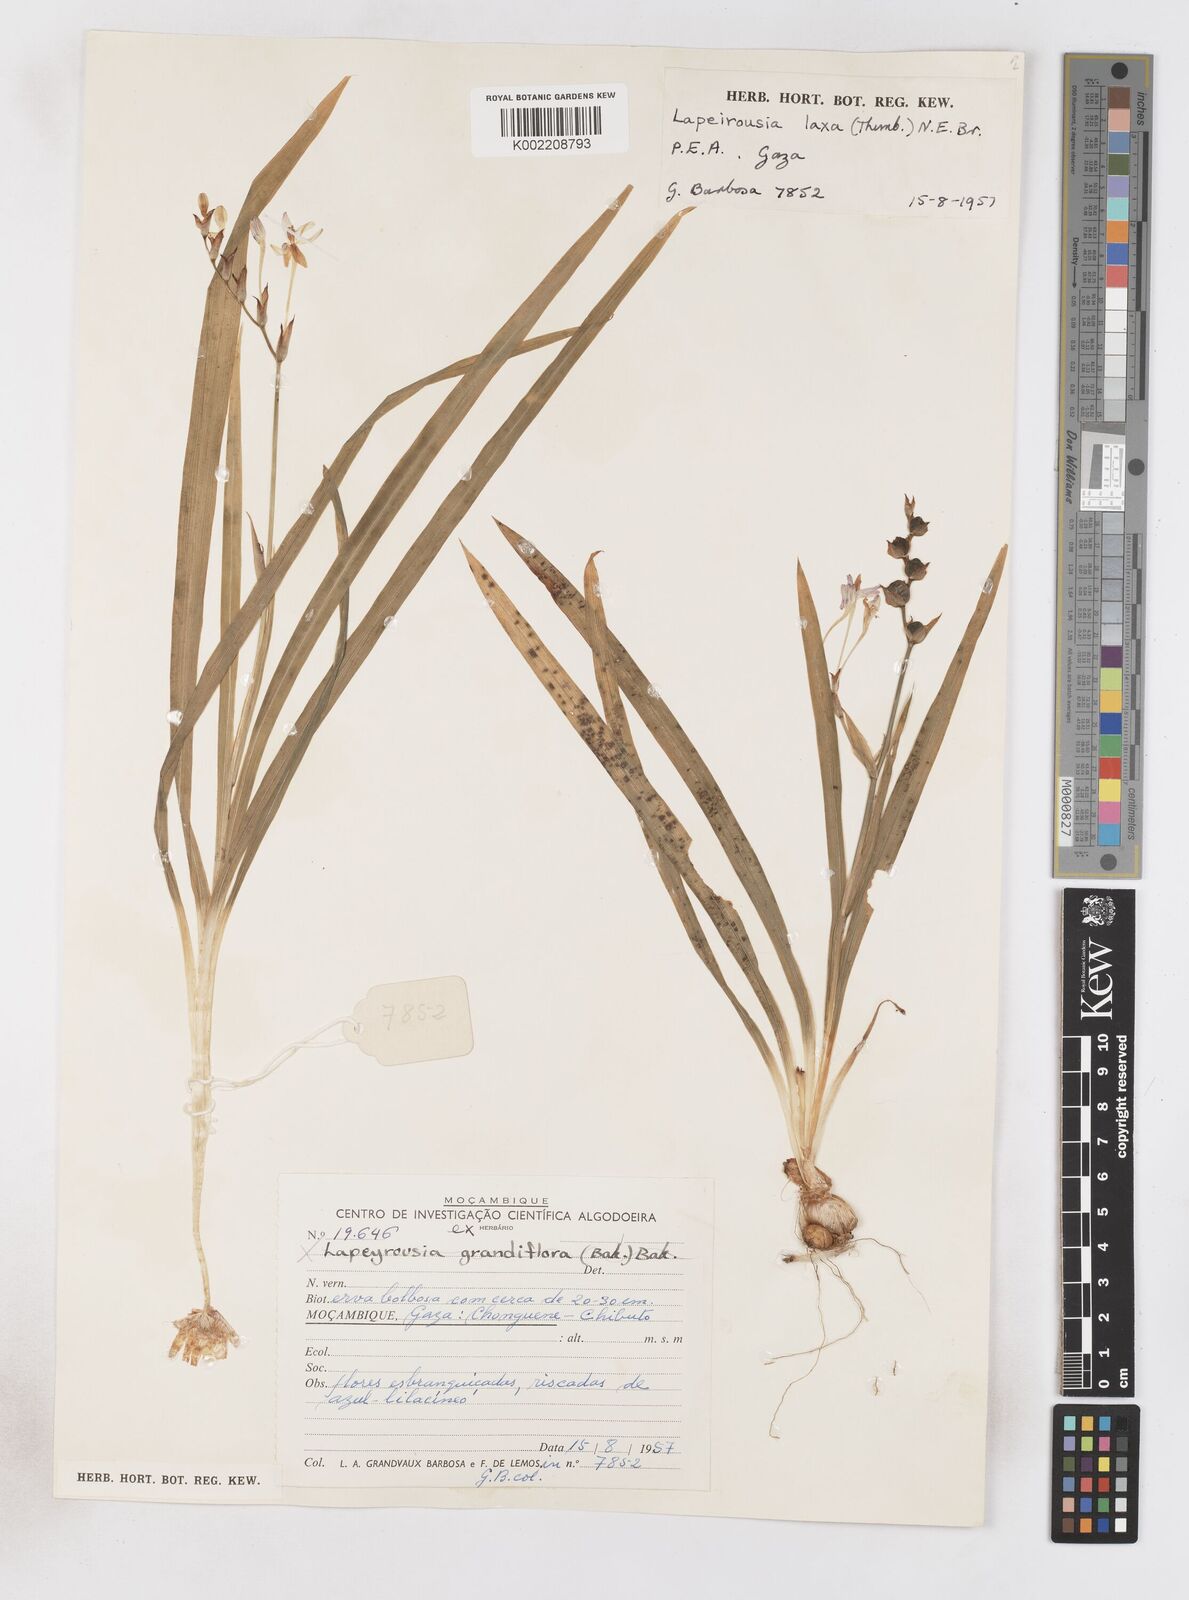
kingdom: Plantae
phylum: Tracheophyta
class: Liliopsida
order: Asparagales
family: Iridaceae
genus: Freesia
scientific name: Freesia laxa
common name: False freesia
